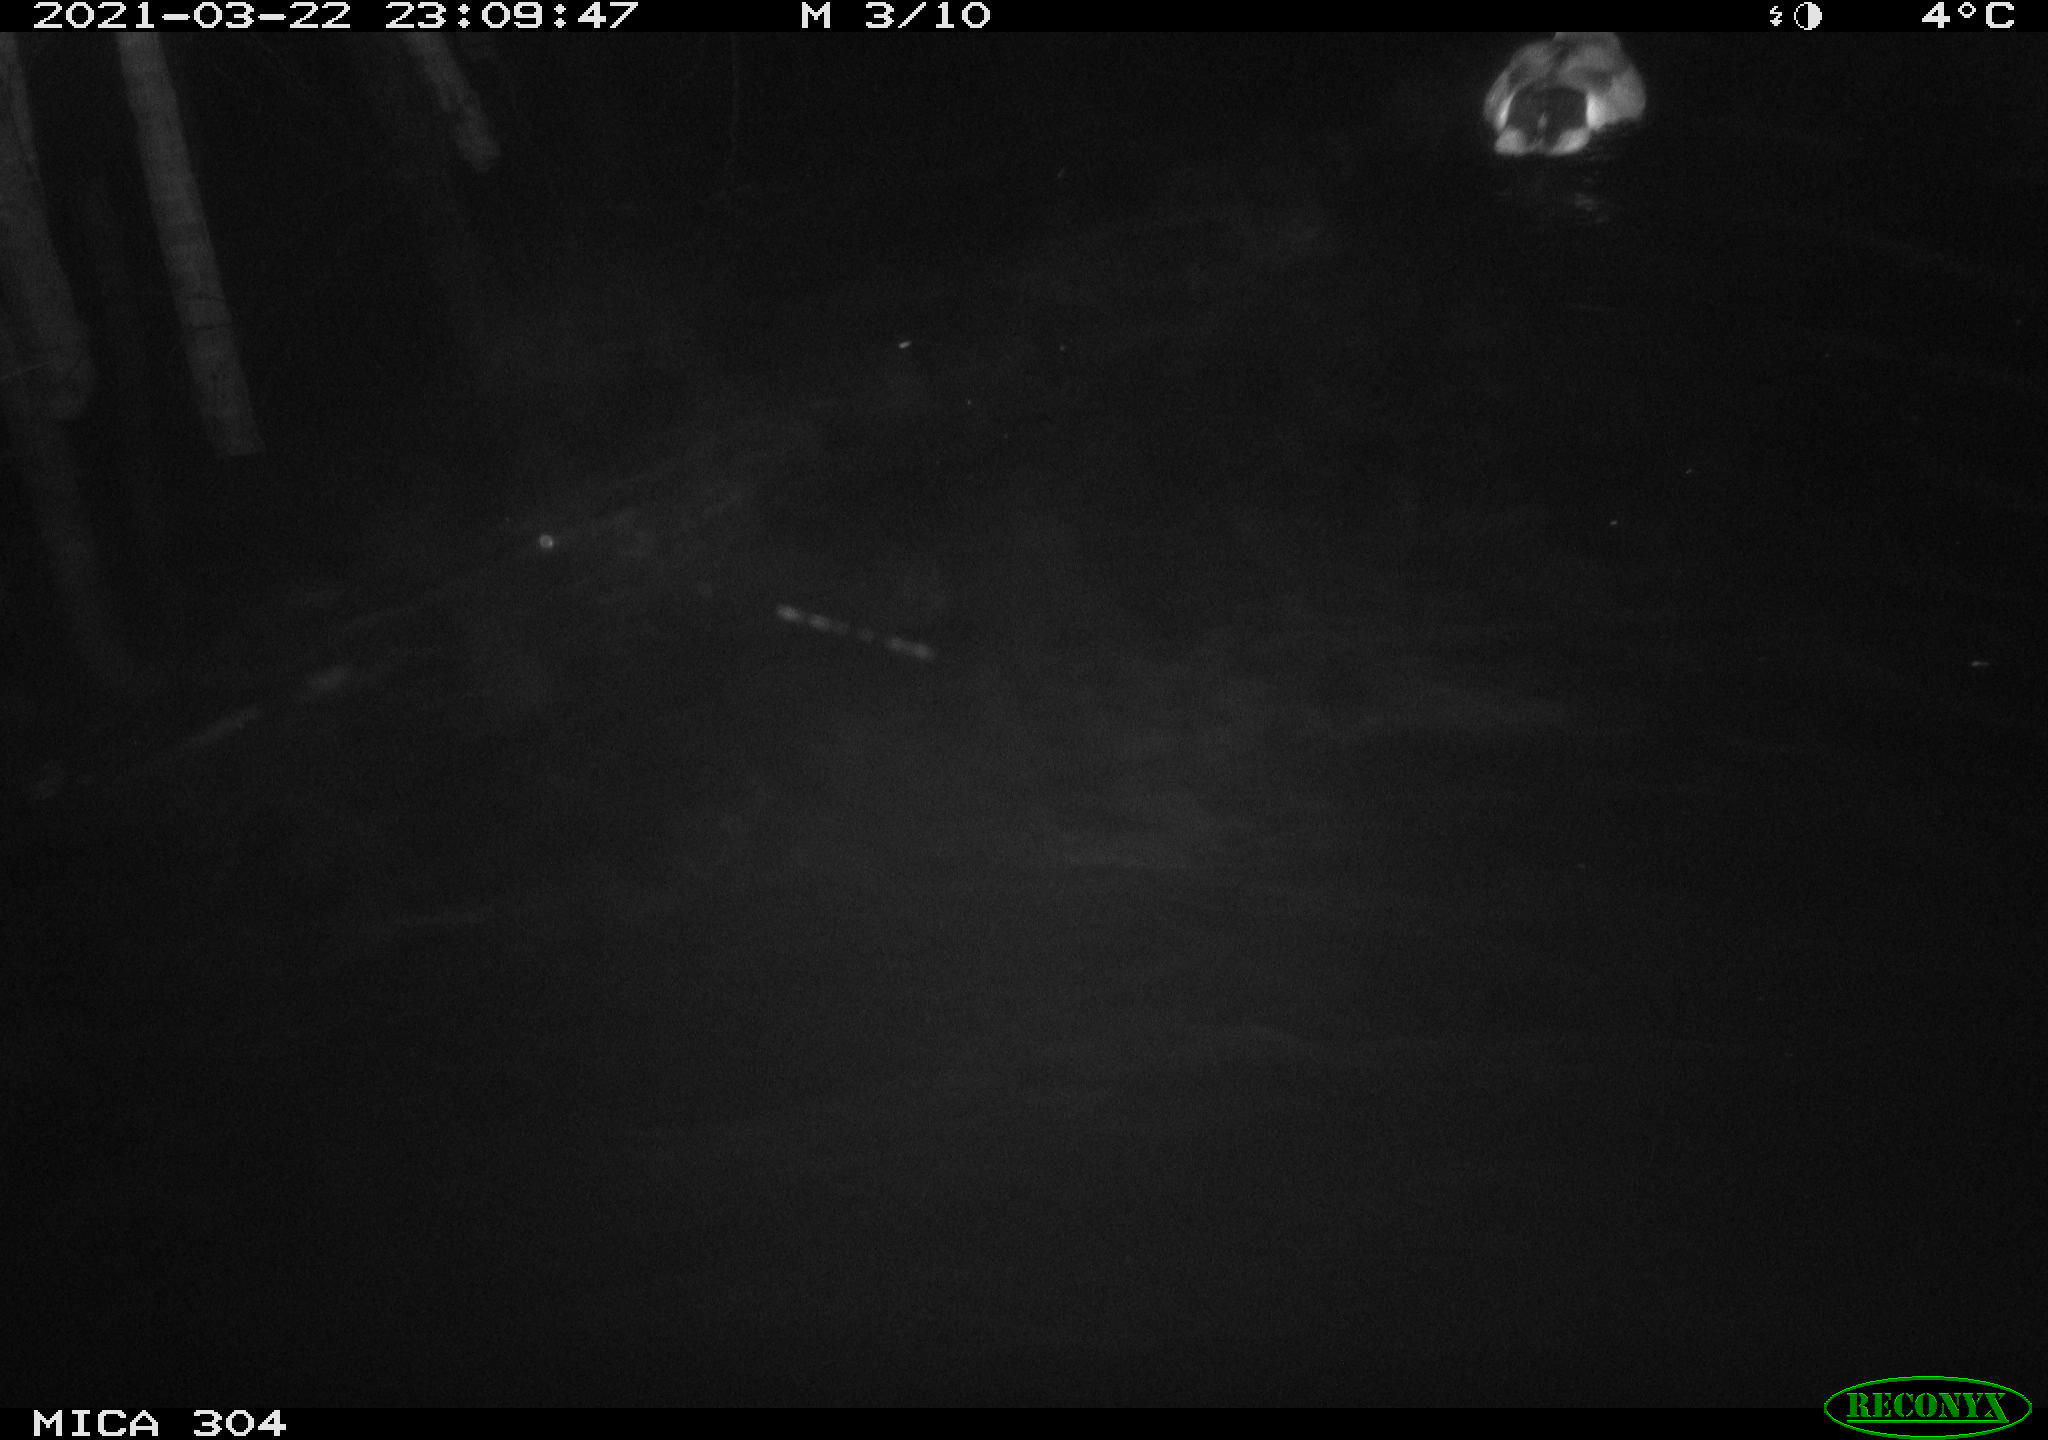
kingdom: Animalia
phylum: Chordata
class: Aves
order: Anseriformes
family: Anatidae
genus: Anas
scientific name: Anas platyrhynchos
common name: Mallard
